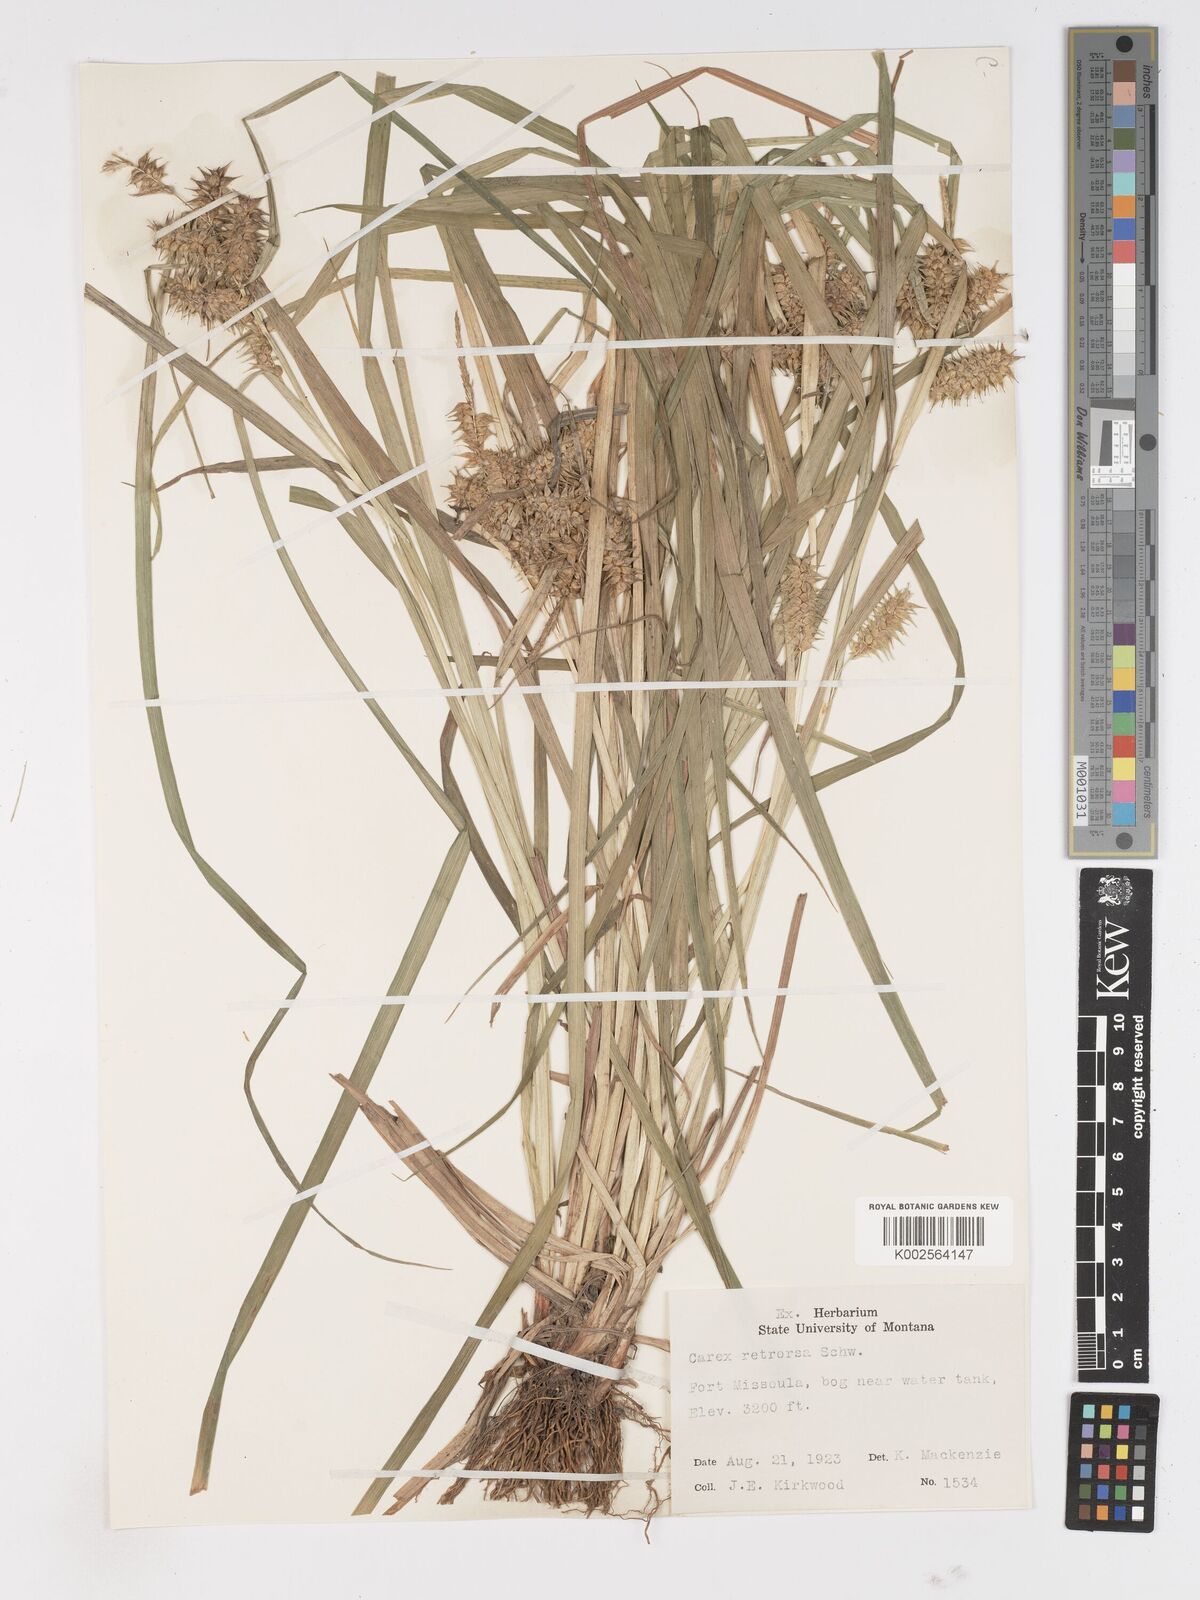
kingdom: Plantae
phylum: Tracheophyta
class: Liliopsida
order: Poales
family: Cyperaceae
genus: Carex
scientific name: Carex retrorsa
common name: Knot-sheath sedge
